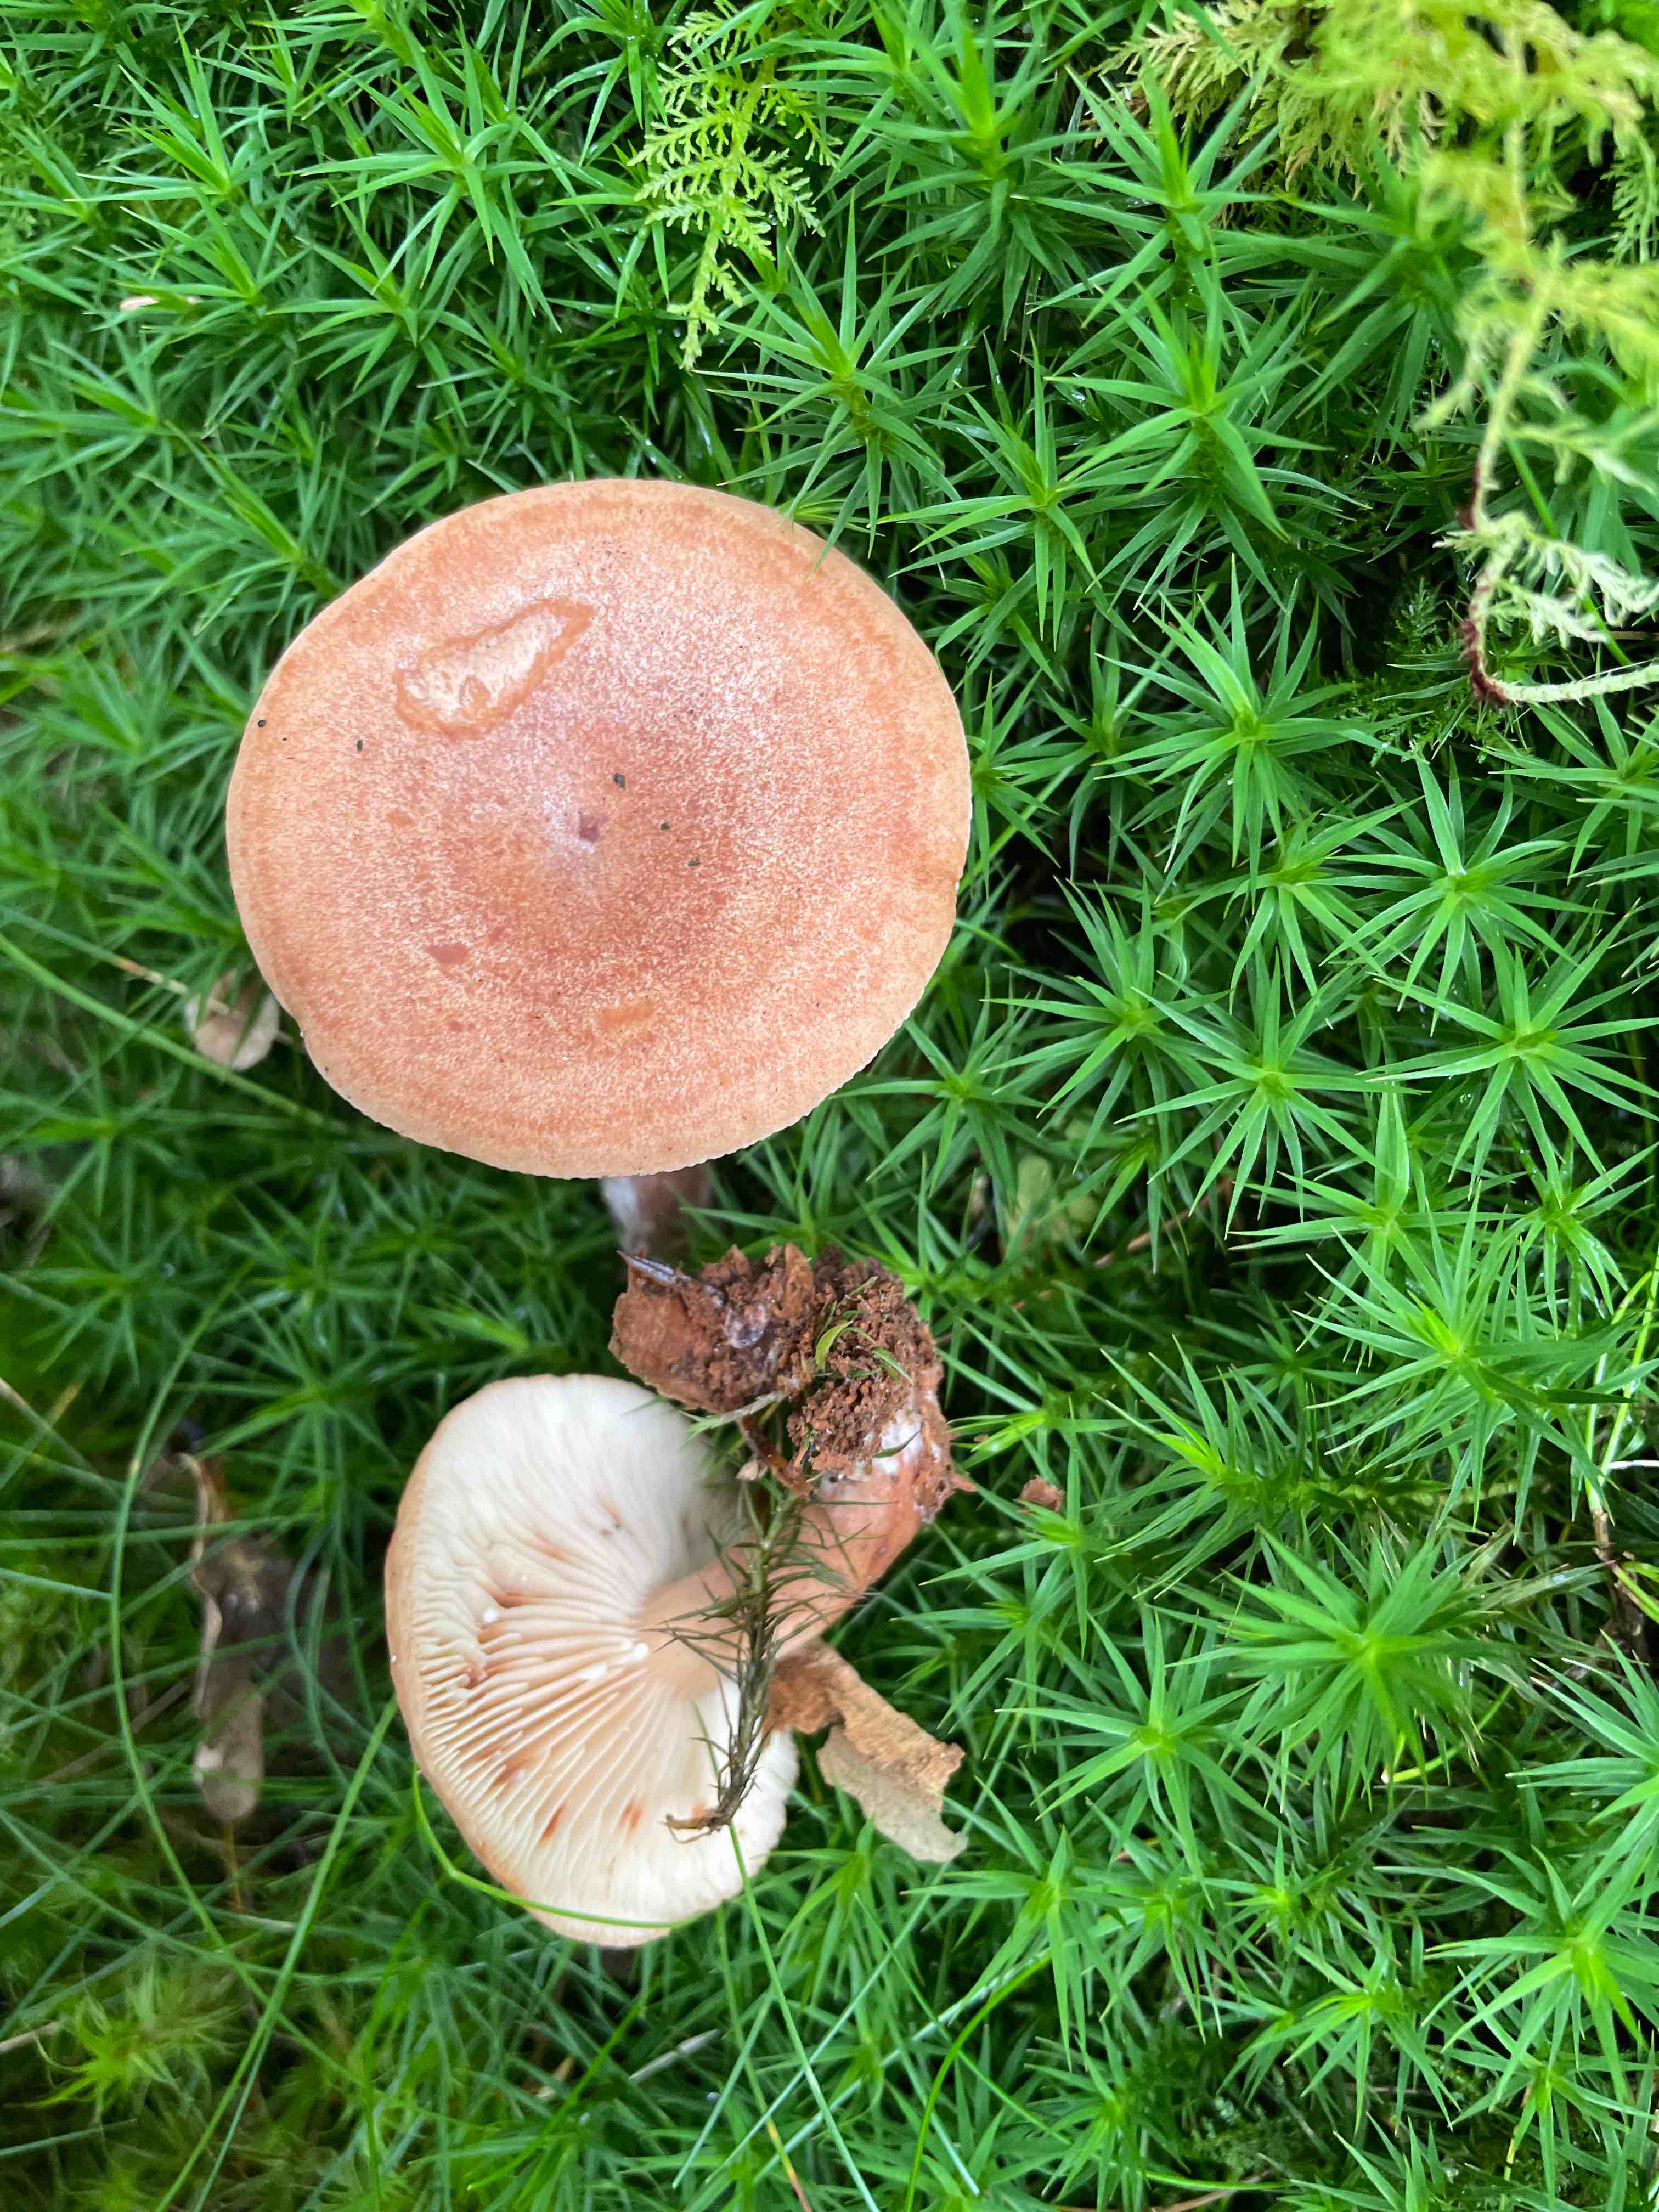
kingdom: Fungi
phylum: Basidiomycota
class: Agaricomycetes
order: Russulales
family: Russulaceae
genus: Lactarius
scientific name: Lactarius quietus
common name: ege-mælkehat
